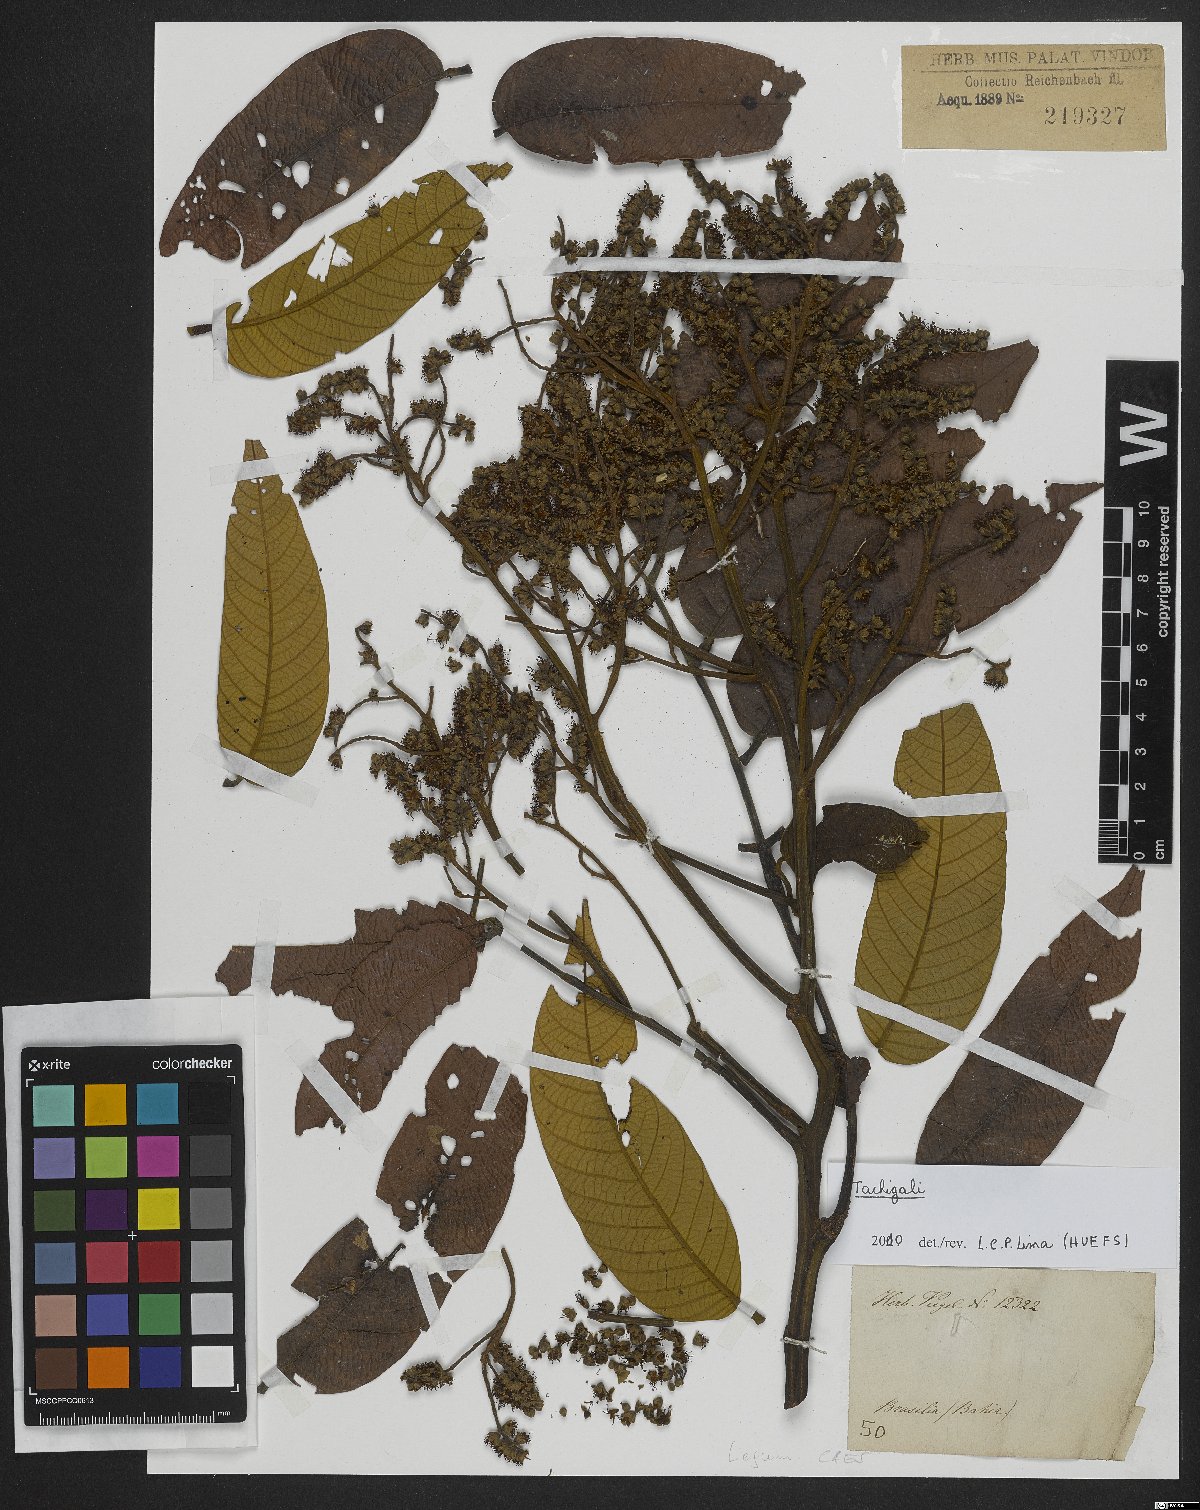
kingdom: Plantae
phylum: Tracheophyta
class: Magnoliopsida
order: Fabales
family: Fabaceae
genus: Tachigali
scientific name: Tachigali
